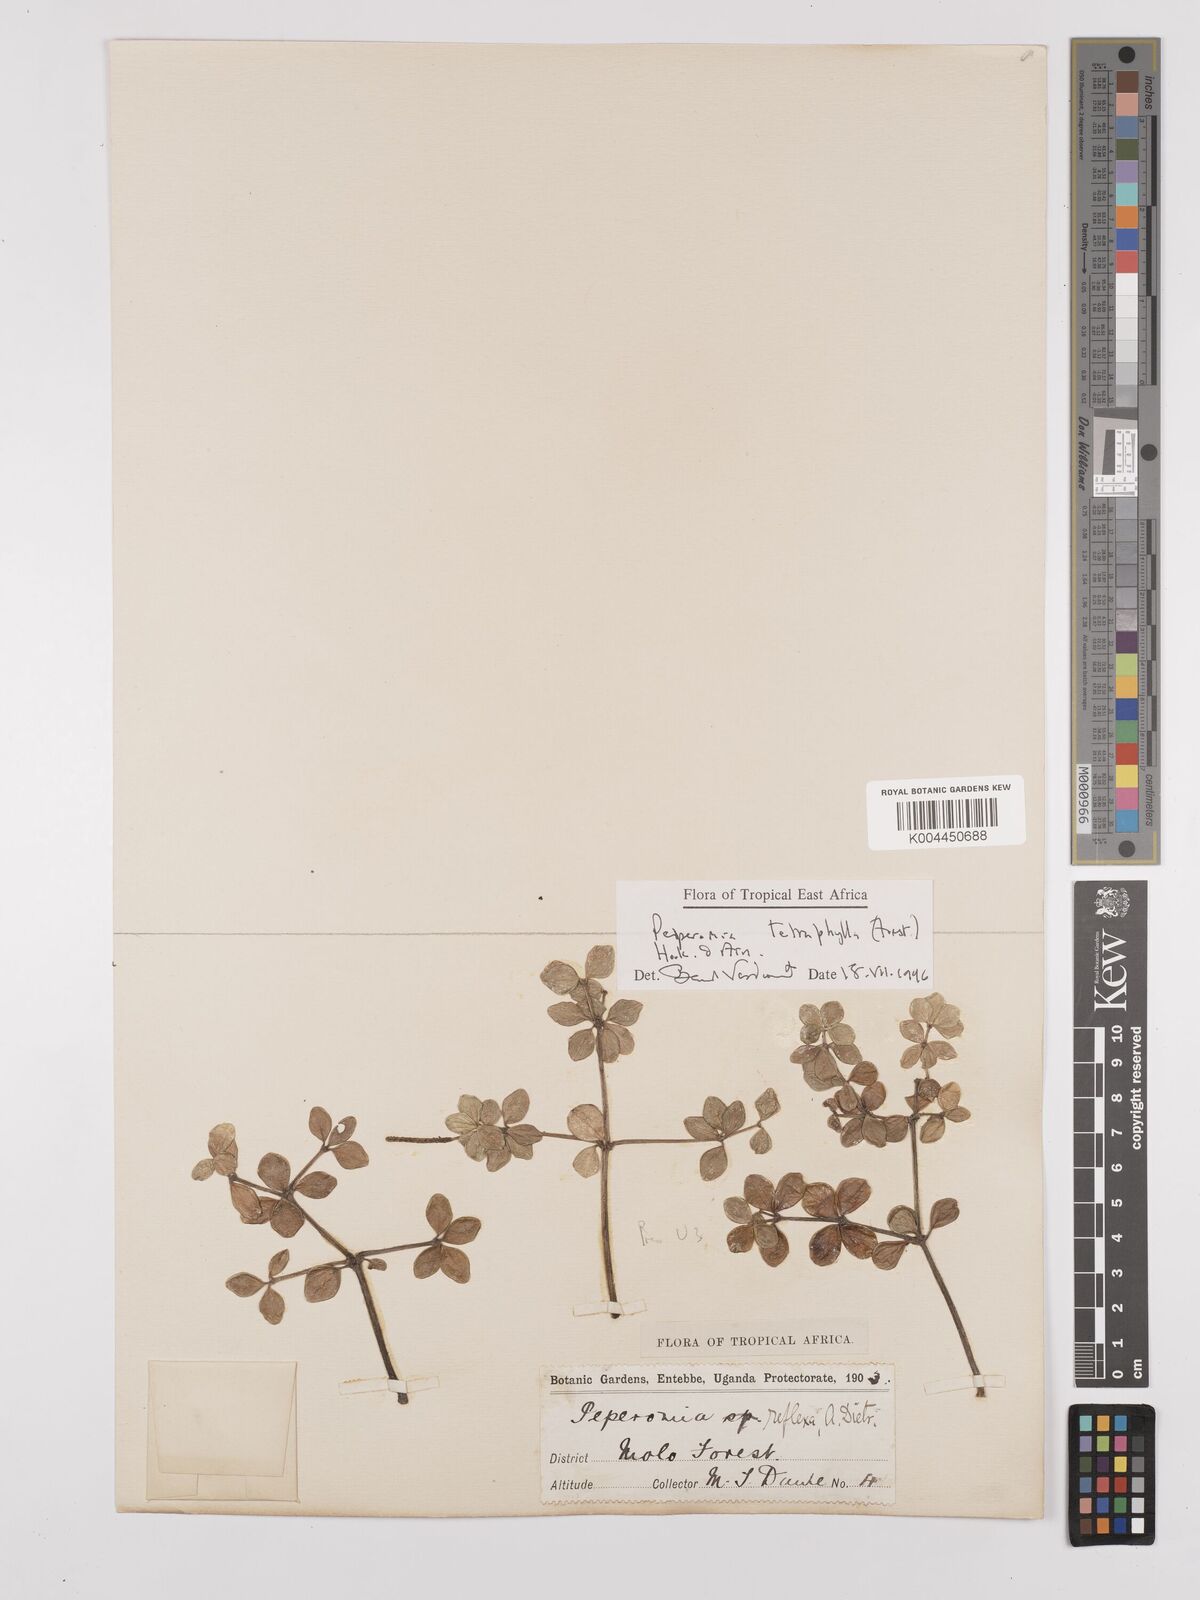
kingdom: Plantae
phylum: Tracheophyta
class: Magnoliopsida
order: Piperales
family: Piperaceae
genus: Peperomia
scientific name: Peperomia tetraphylla
